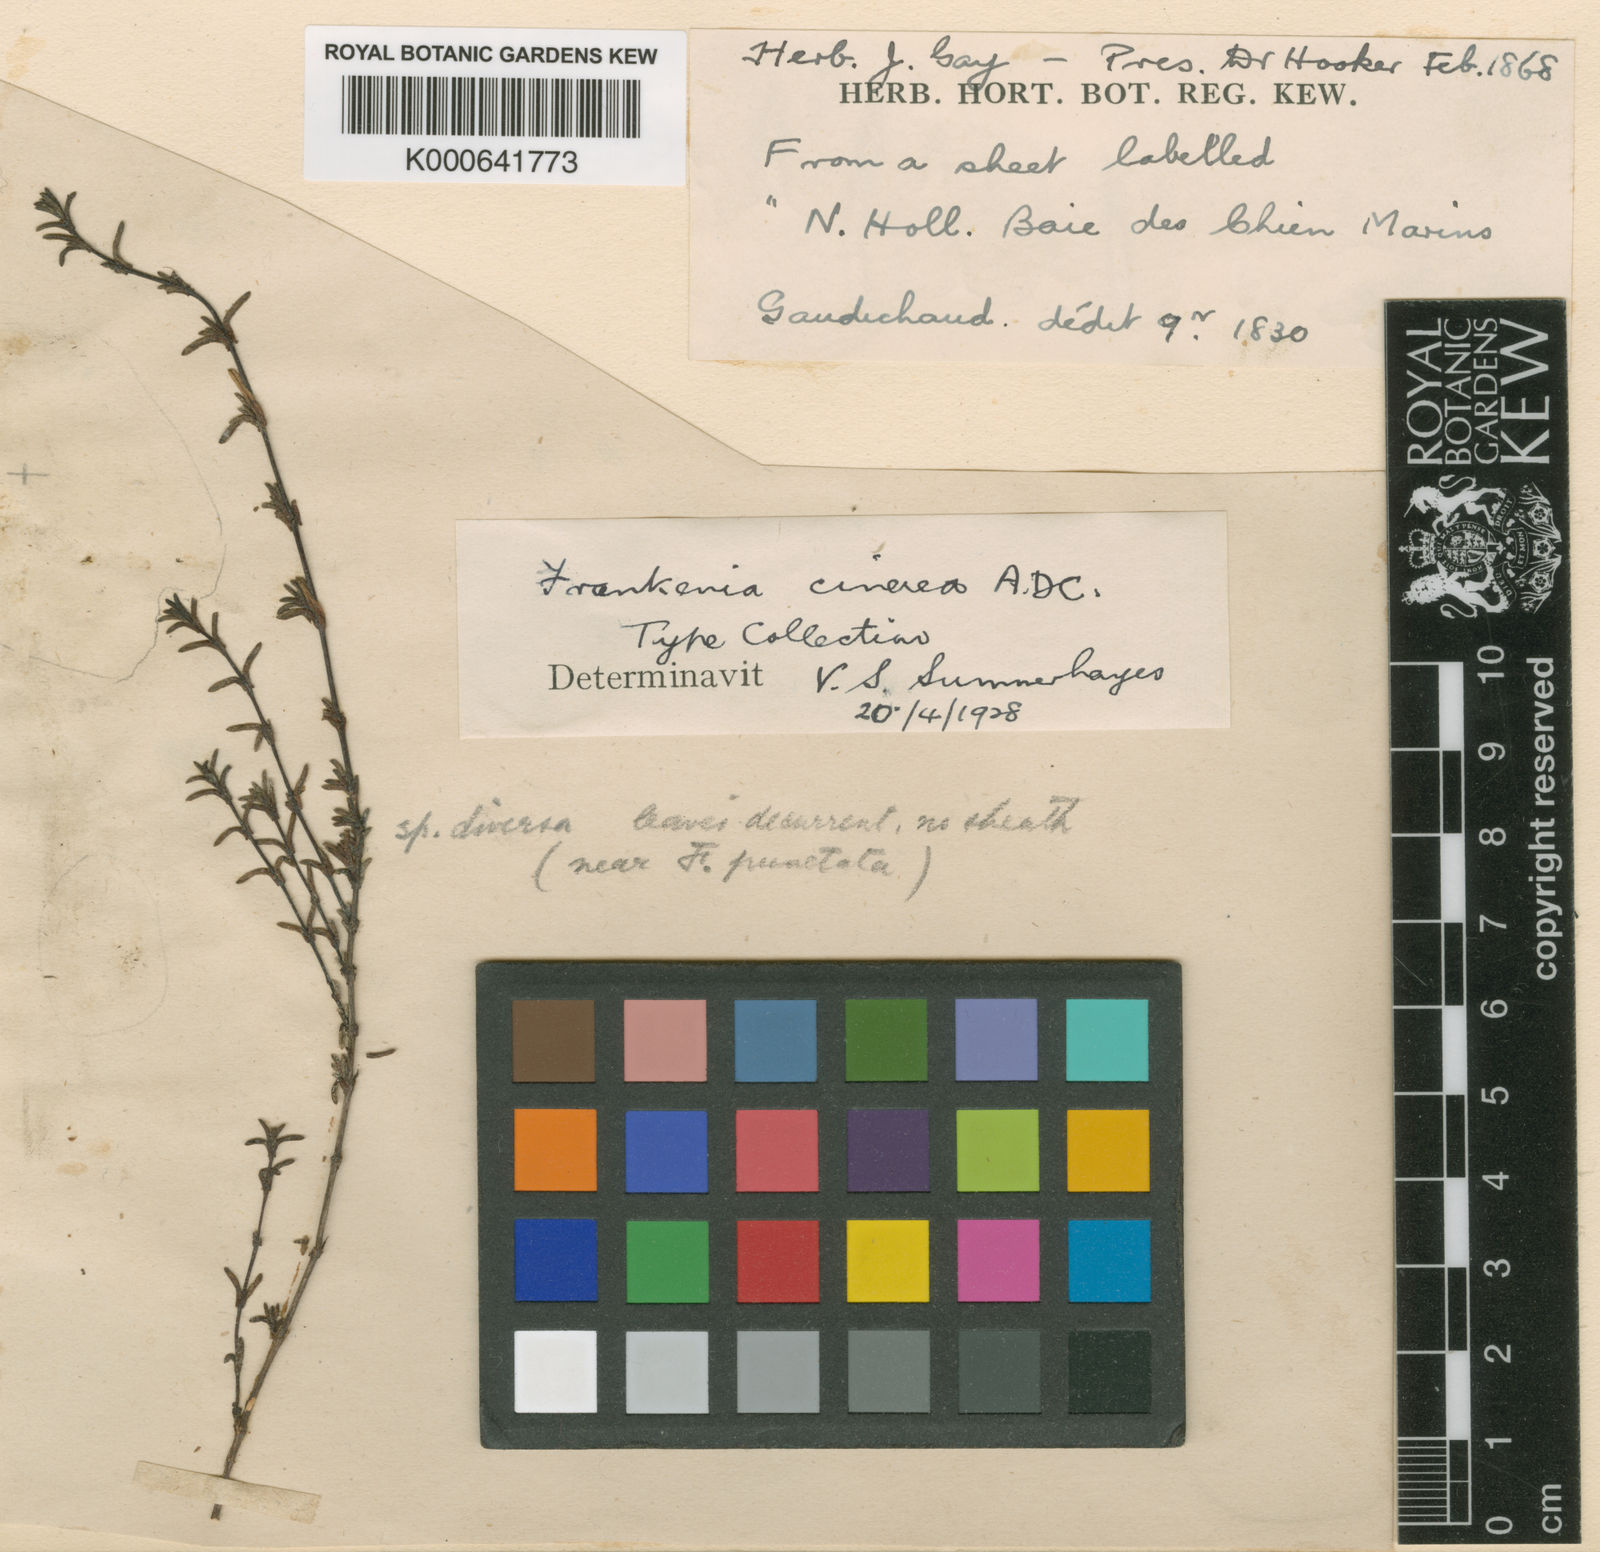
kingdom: Plantae
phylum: Tracheophyta
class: Magnoliopsida
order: Caryophyllales
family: Frankeniaceae
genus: Frankenia
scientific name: Frankenia cinerea
